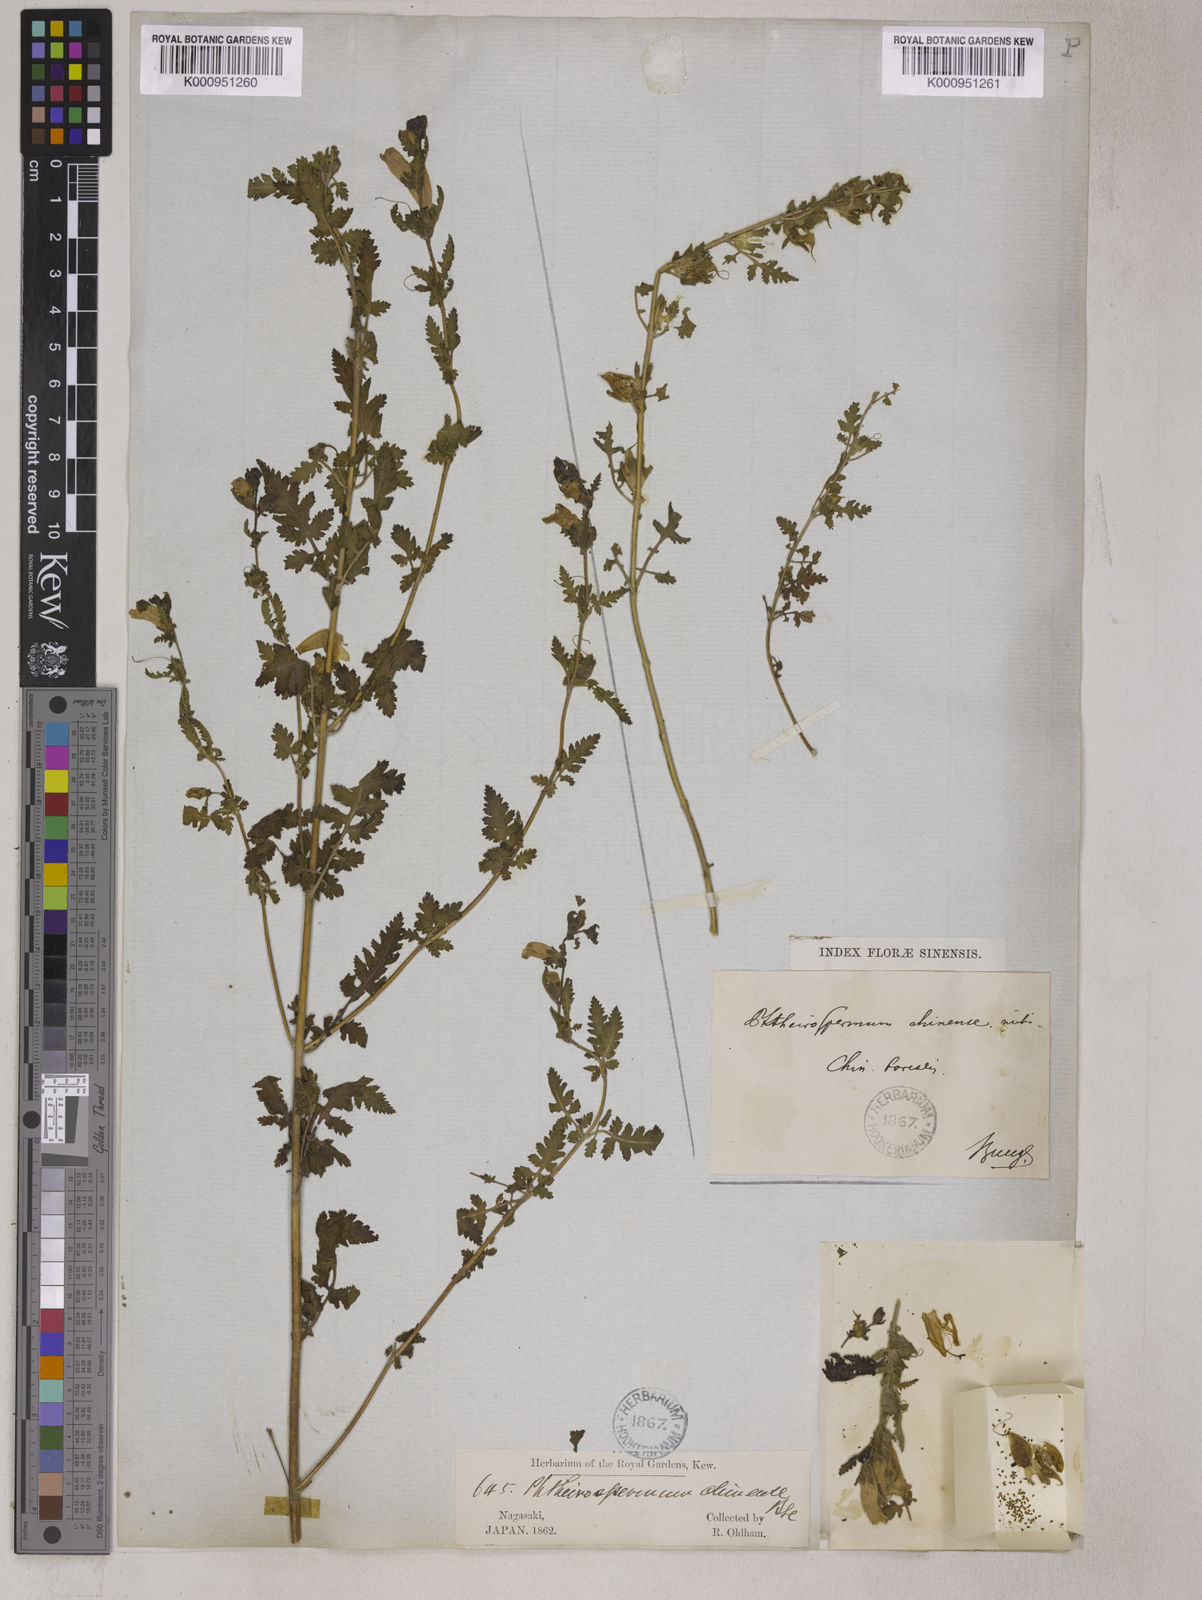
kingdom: Plantae
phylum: Tracheophyta
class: Magnoliopsida
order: Lamiales
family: Orobanchaceae
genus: Phtheirospermum
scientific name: Phtheirospermum
